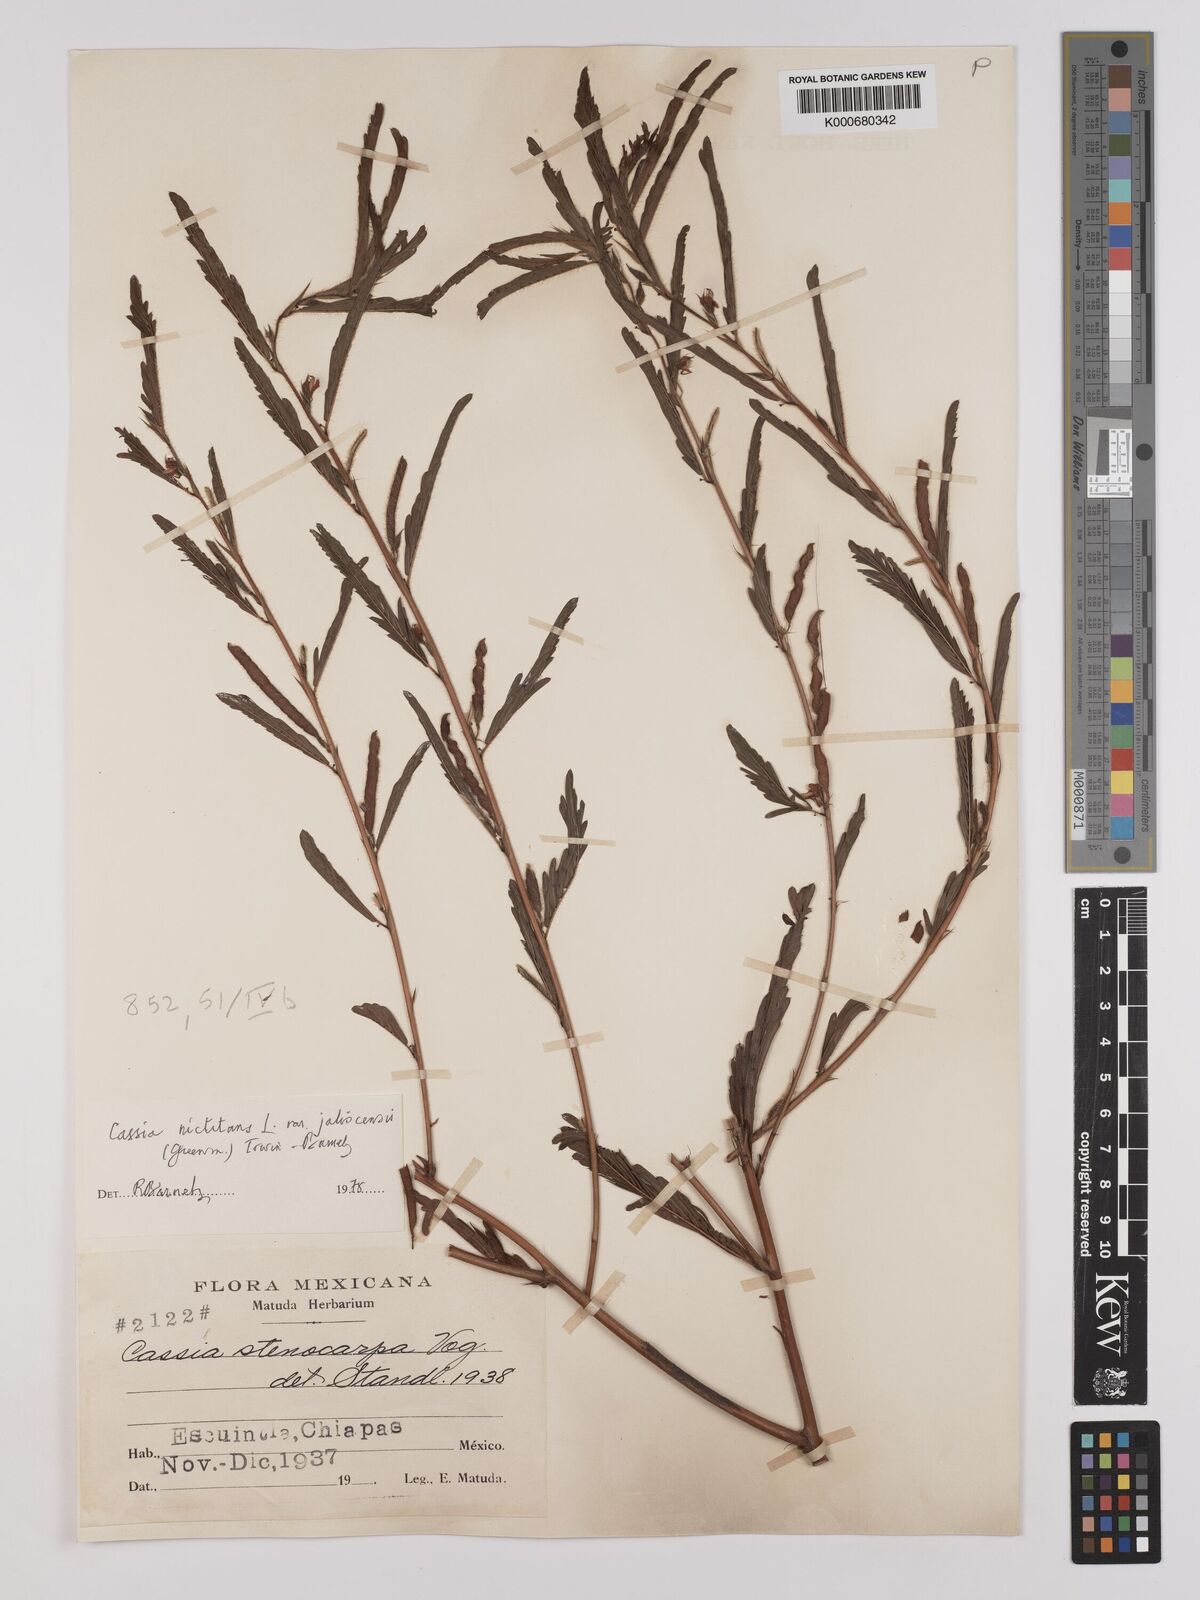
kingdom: Plantae
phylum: Tracheophyta
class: Magnoliopsida
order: Fabales
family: Fabaceae
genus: Chamaecrista
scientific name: Chamaecrista nictitans
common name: Sensitive cassia
